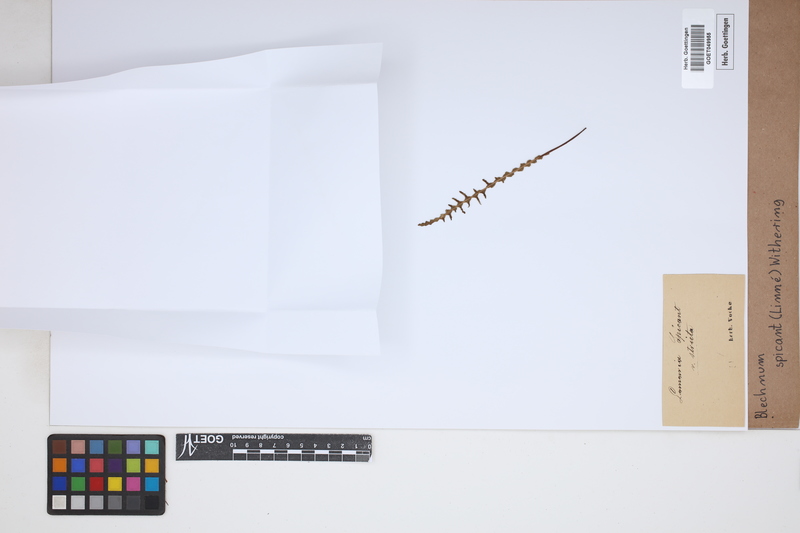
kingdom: Plantae
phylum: Tracheophyta
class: Polypodiopsida
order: Polypodiales
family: Blechnaceae
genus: Struthiopteris
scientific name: Struthiopteris spicant
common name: Deer fern
